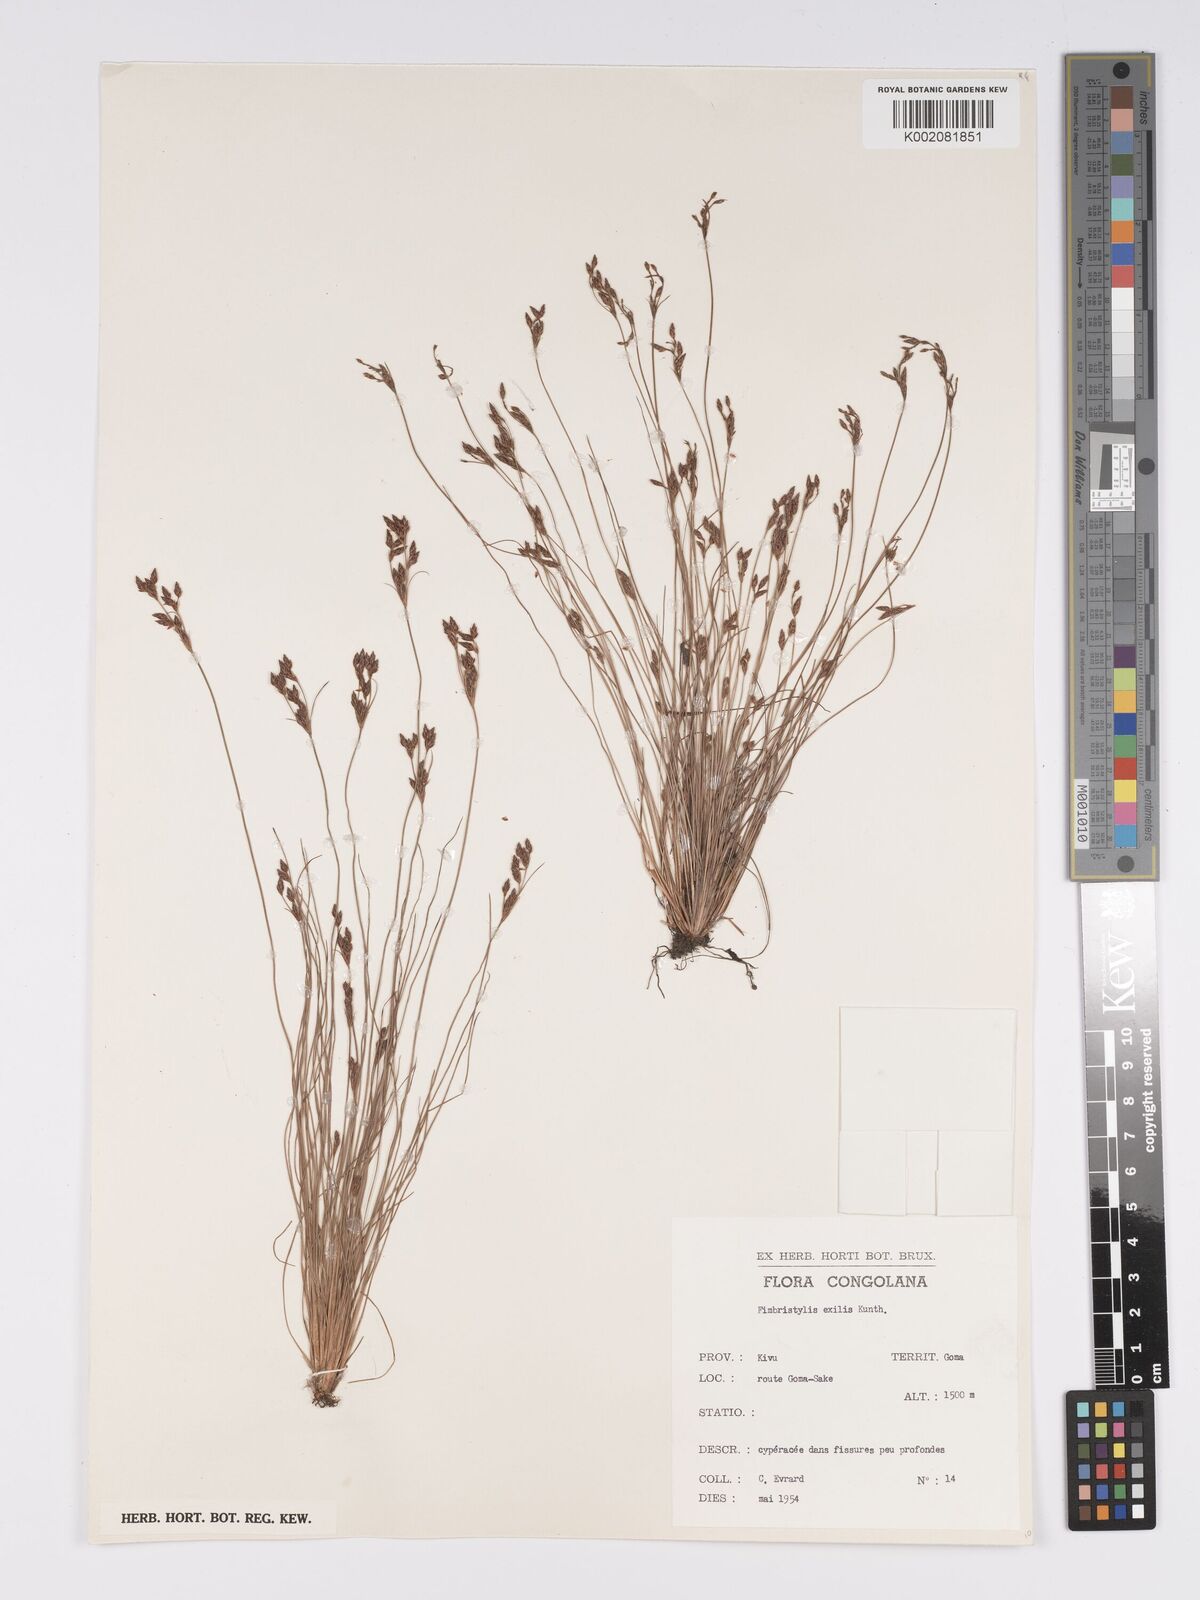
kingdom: Plantae
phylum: Tracheophyta
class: Liliopsida
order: Poales
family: Cyperaceae
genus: Bulbostylis
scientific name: Bulbostylis hispidula
